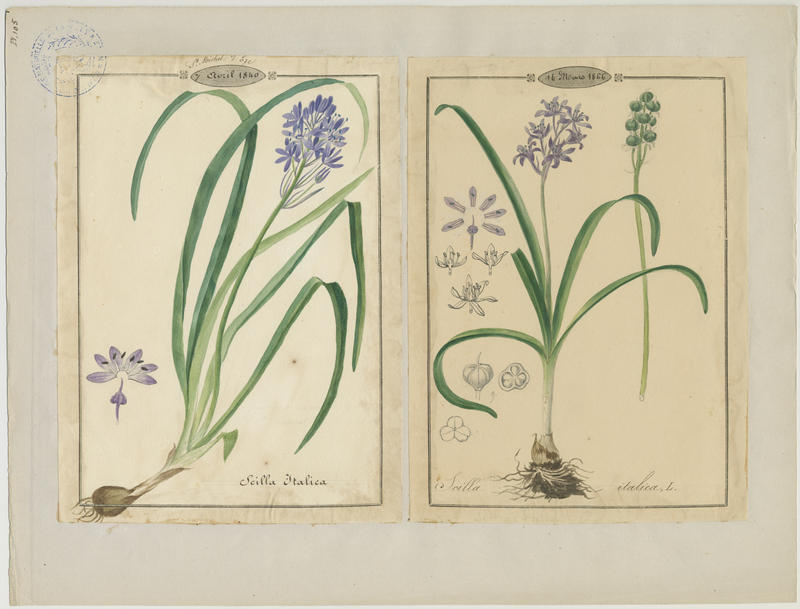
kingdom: Plantae
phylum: Tracheophyta
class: Liliopsida
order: Asparagales
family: Asparagaceae
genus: Hyacinthoides
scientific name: Hyacinthoides italica
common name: Italian bluebell
